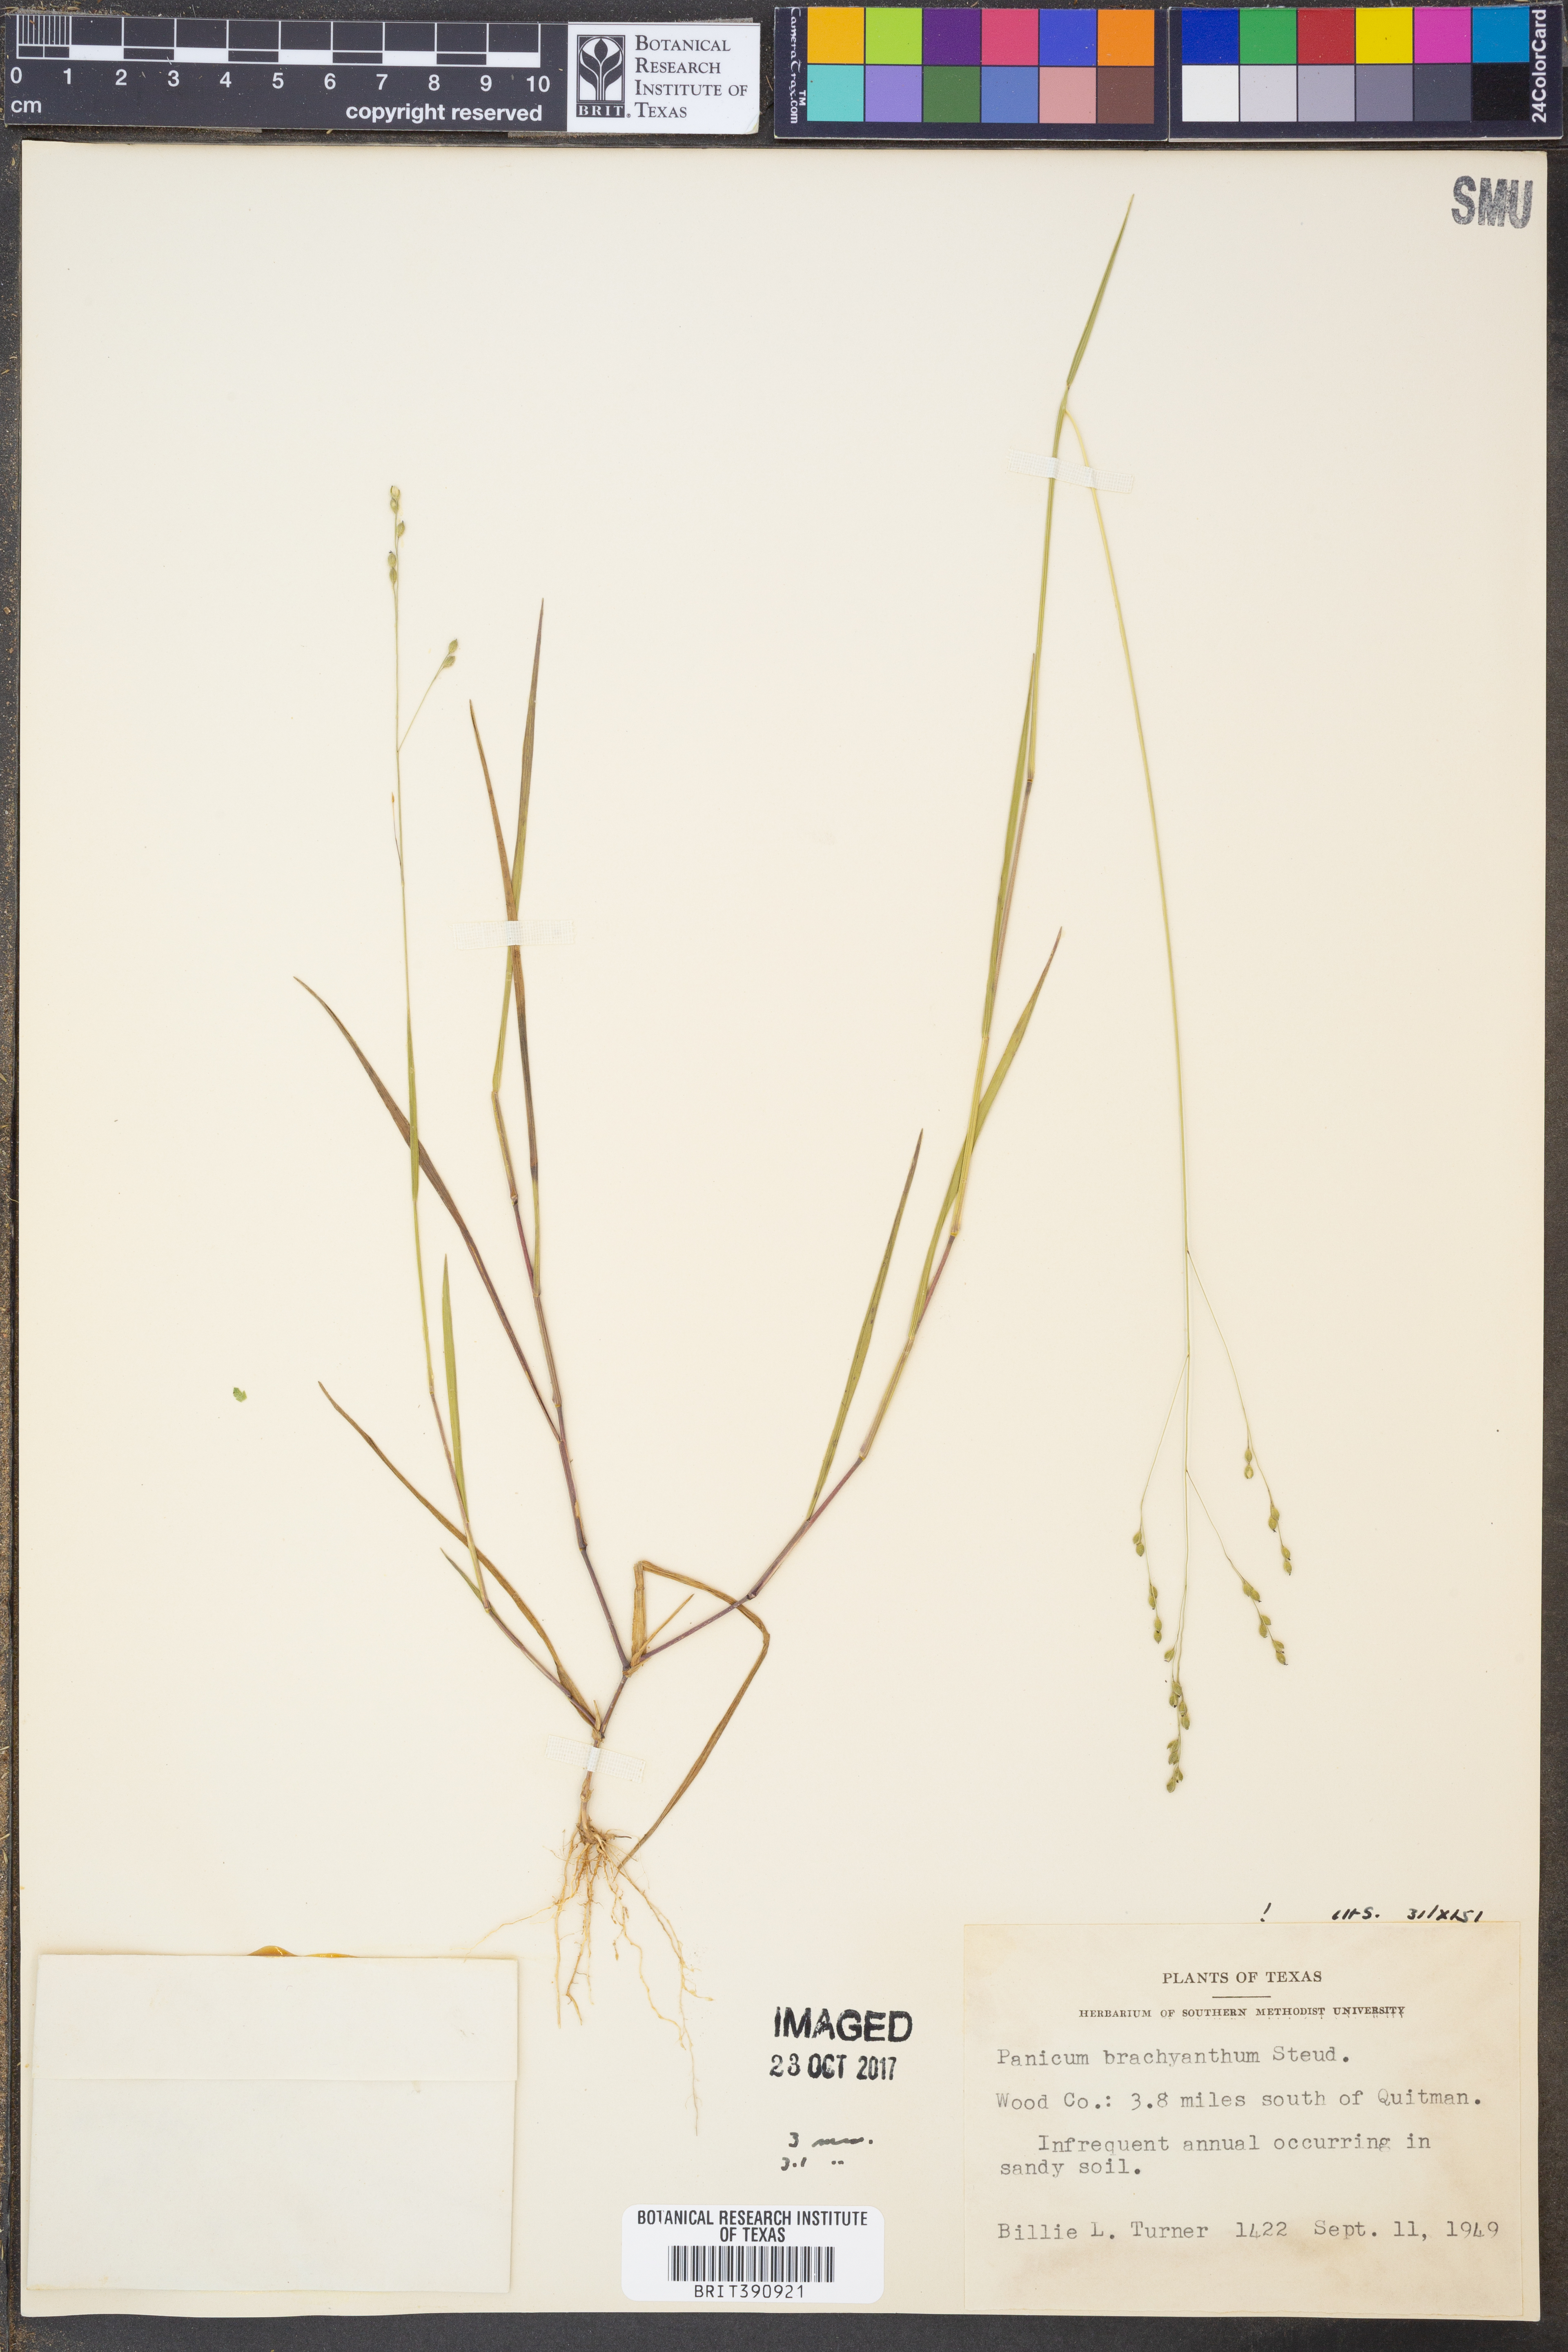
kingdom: Plantae
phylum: Tracheophyta
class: Liliopsida
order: Poales
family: Poaceae
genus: Kellochloa
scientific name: Kellochloa brachyantha
